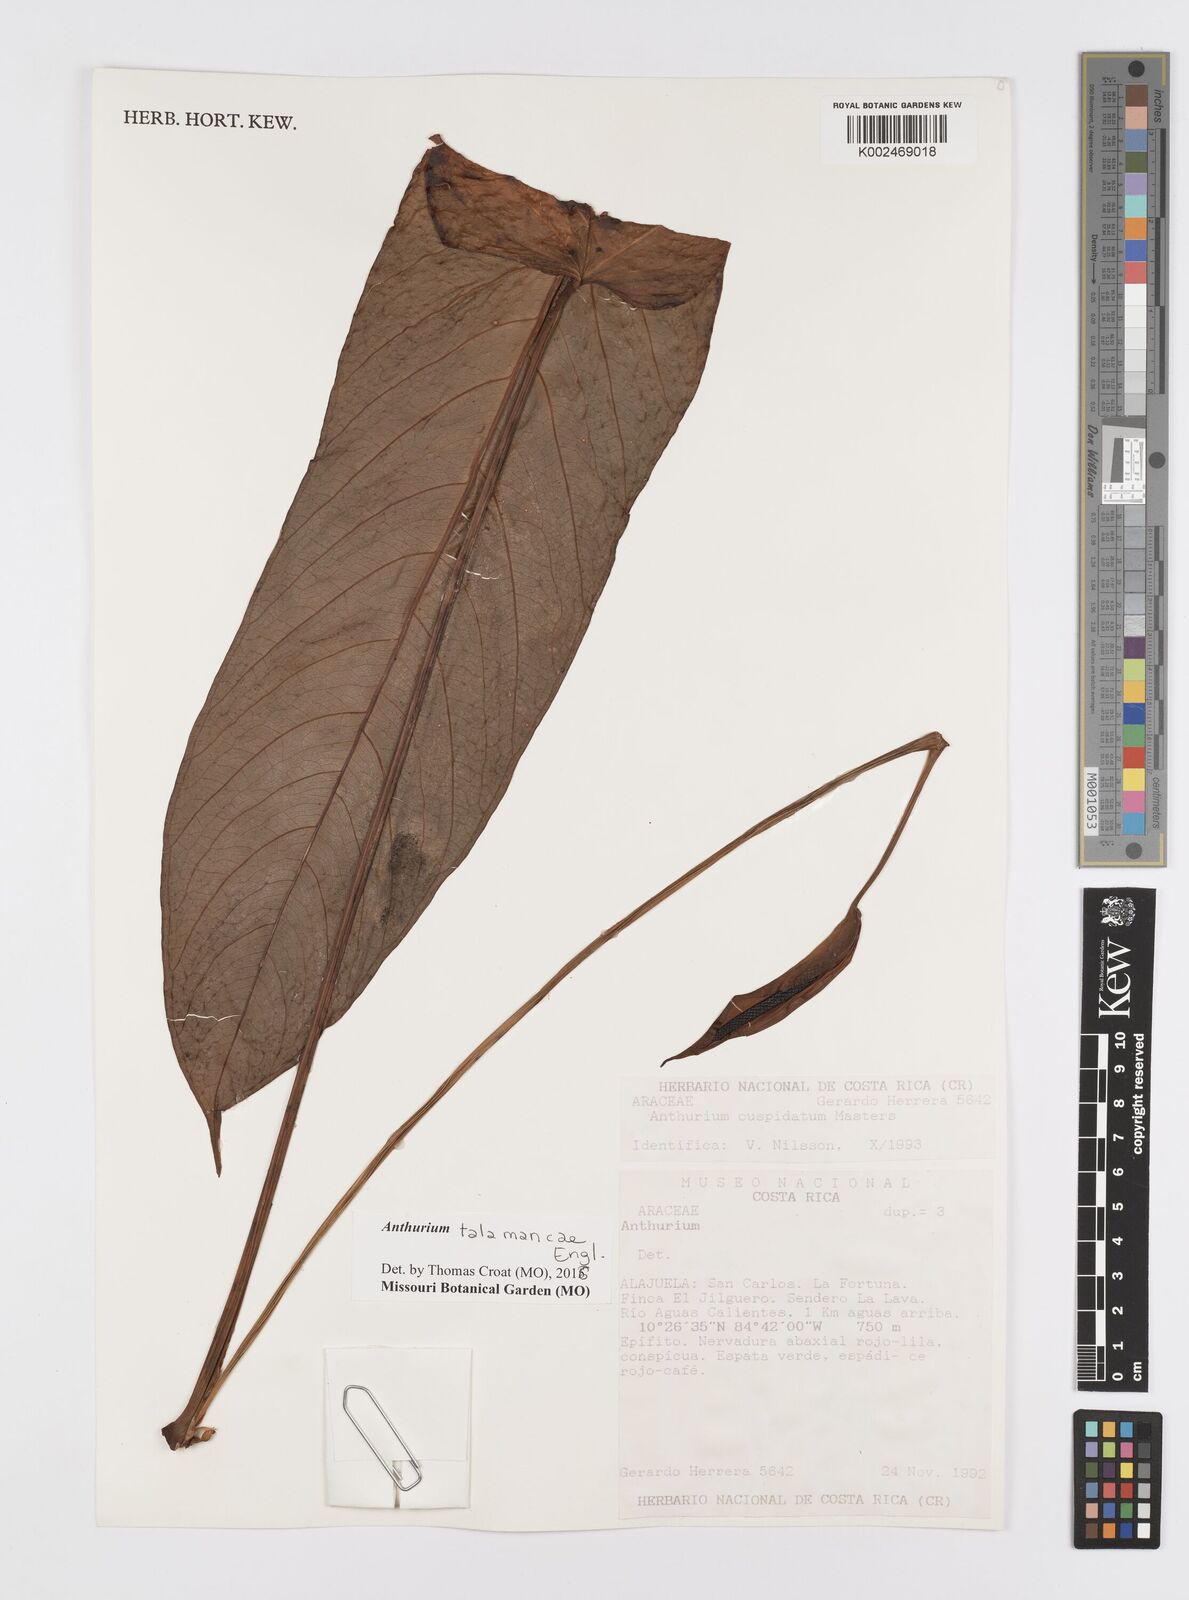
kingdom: Plantae
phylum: Tracheophyta
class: Liliopsida
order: Alismatales
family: Araceae
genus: Anthurium
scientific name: Anthurium talamancae
